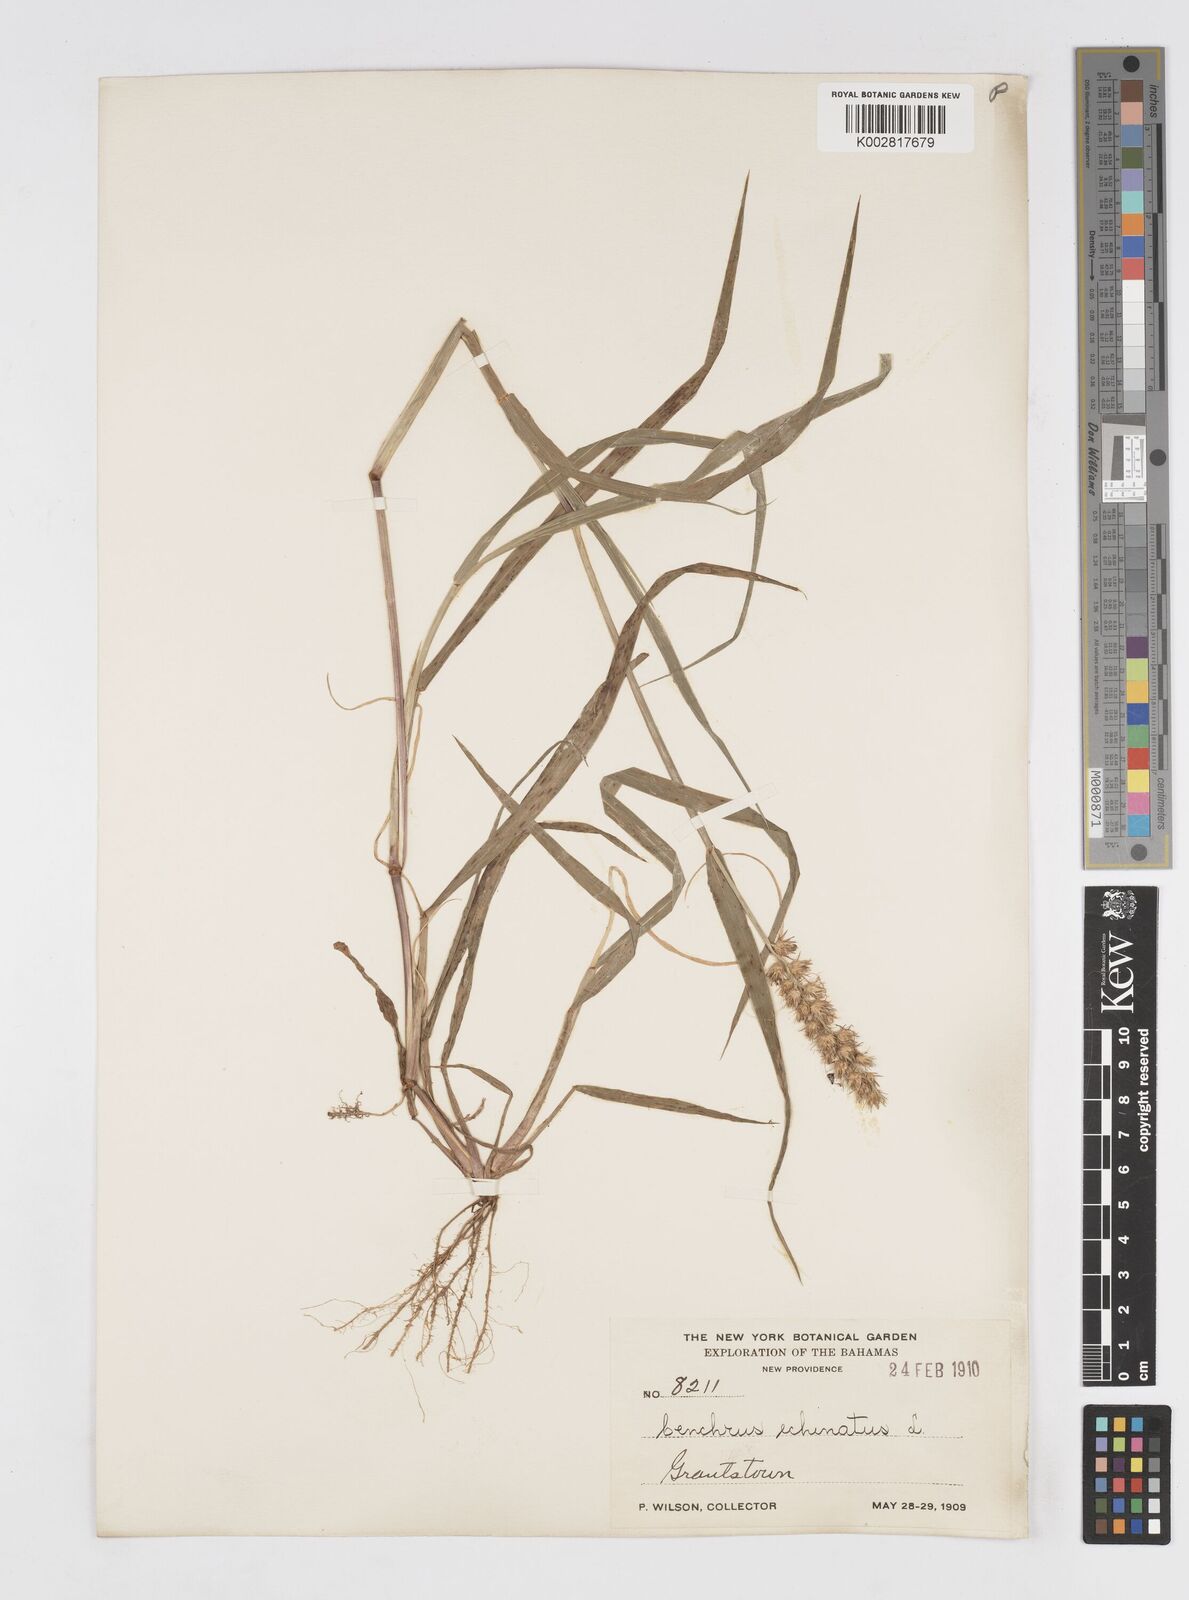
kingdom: Plantae
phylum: Tracheophyta
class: Liliopsida
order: Poales
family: Poaceae
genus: Cenchrus
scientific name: Cenchrus
